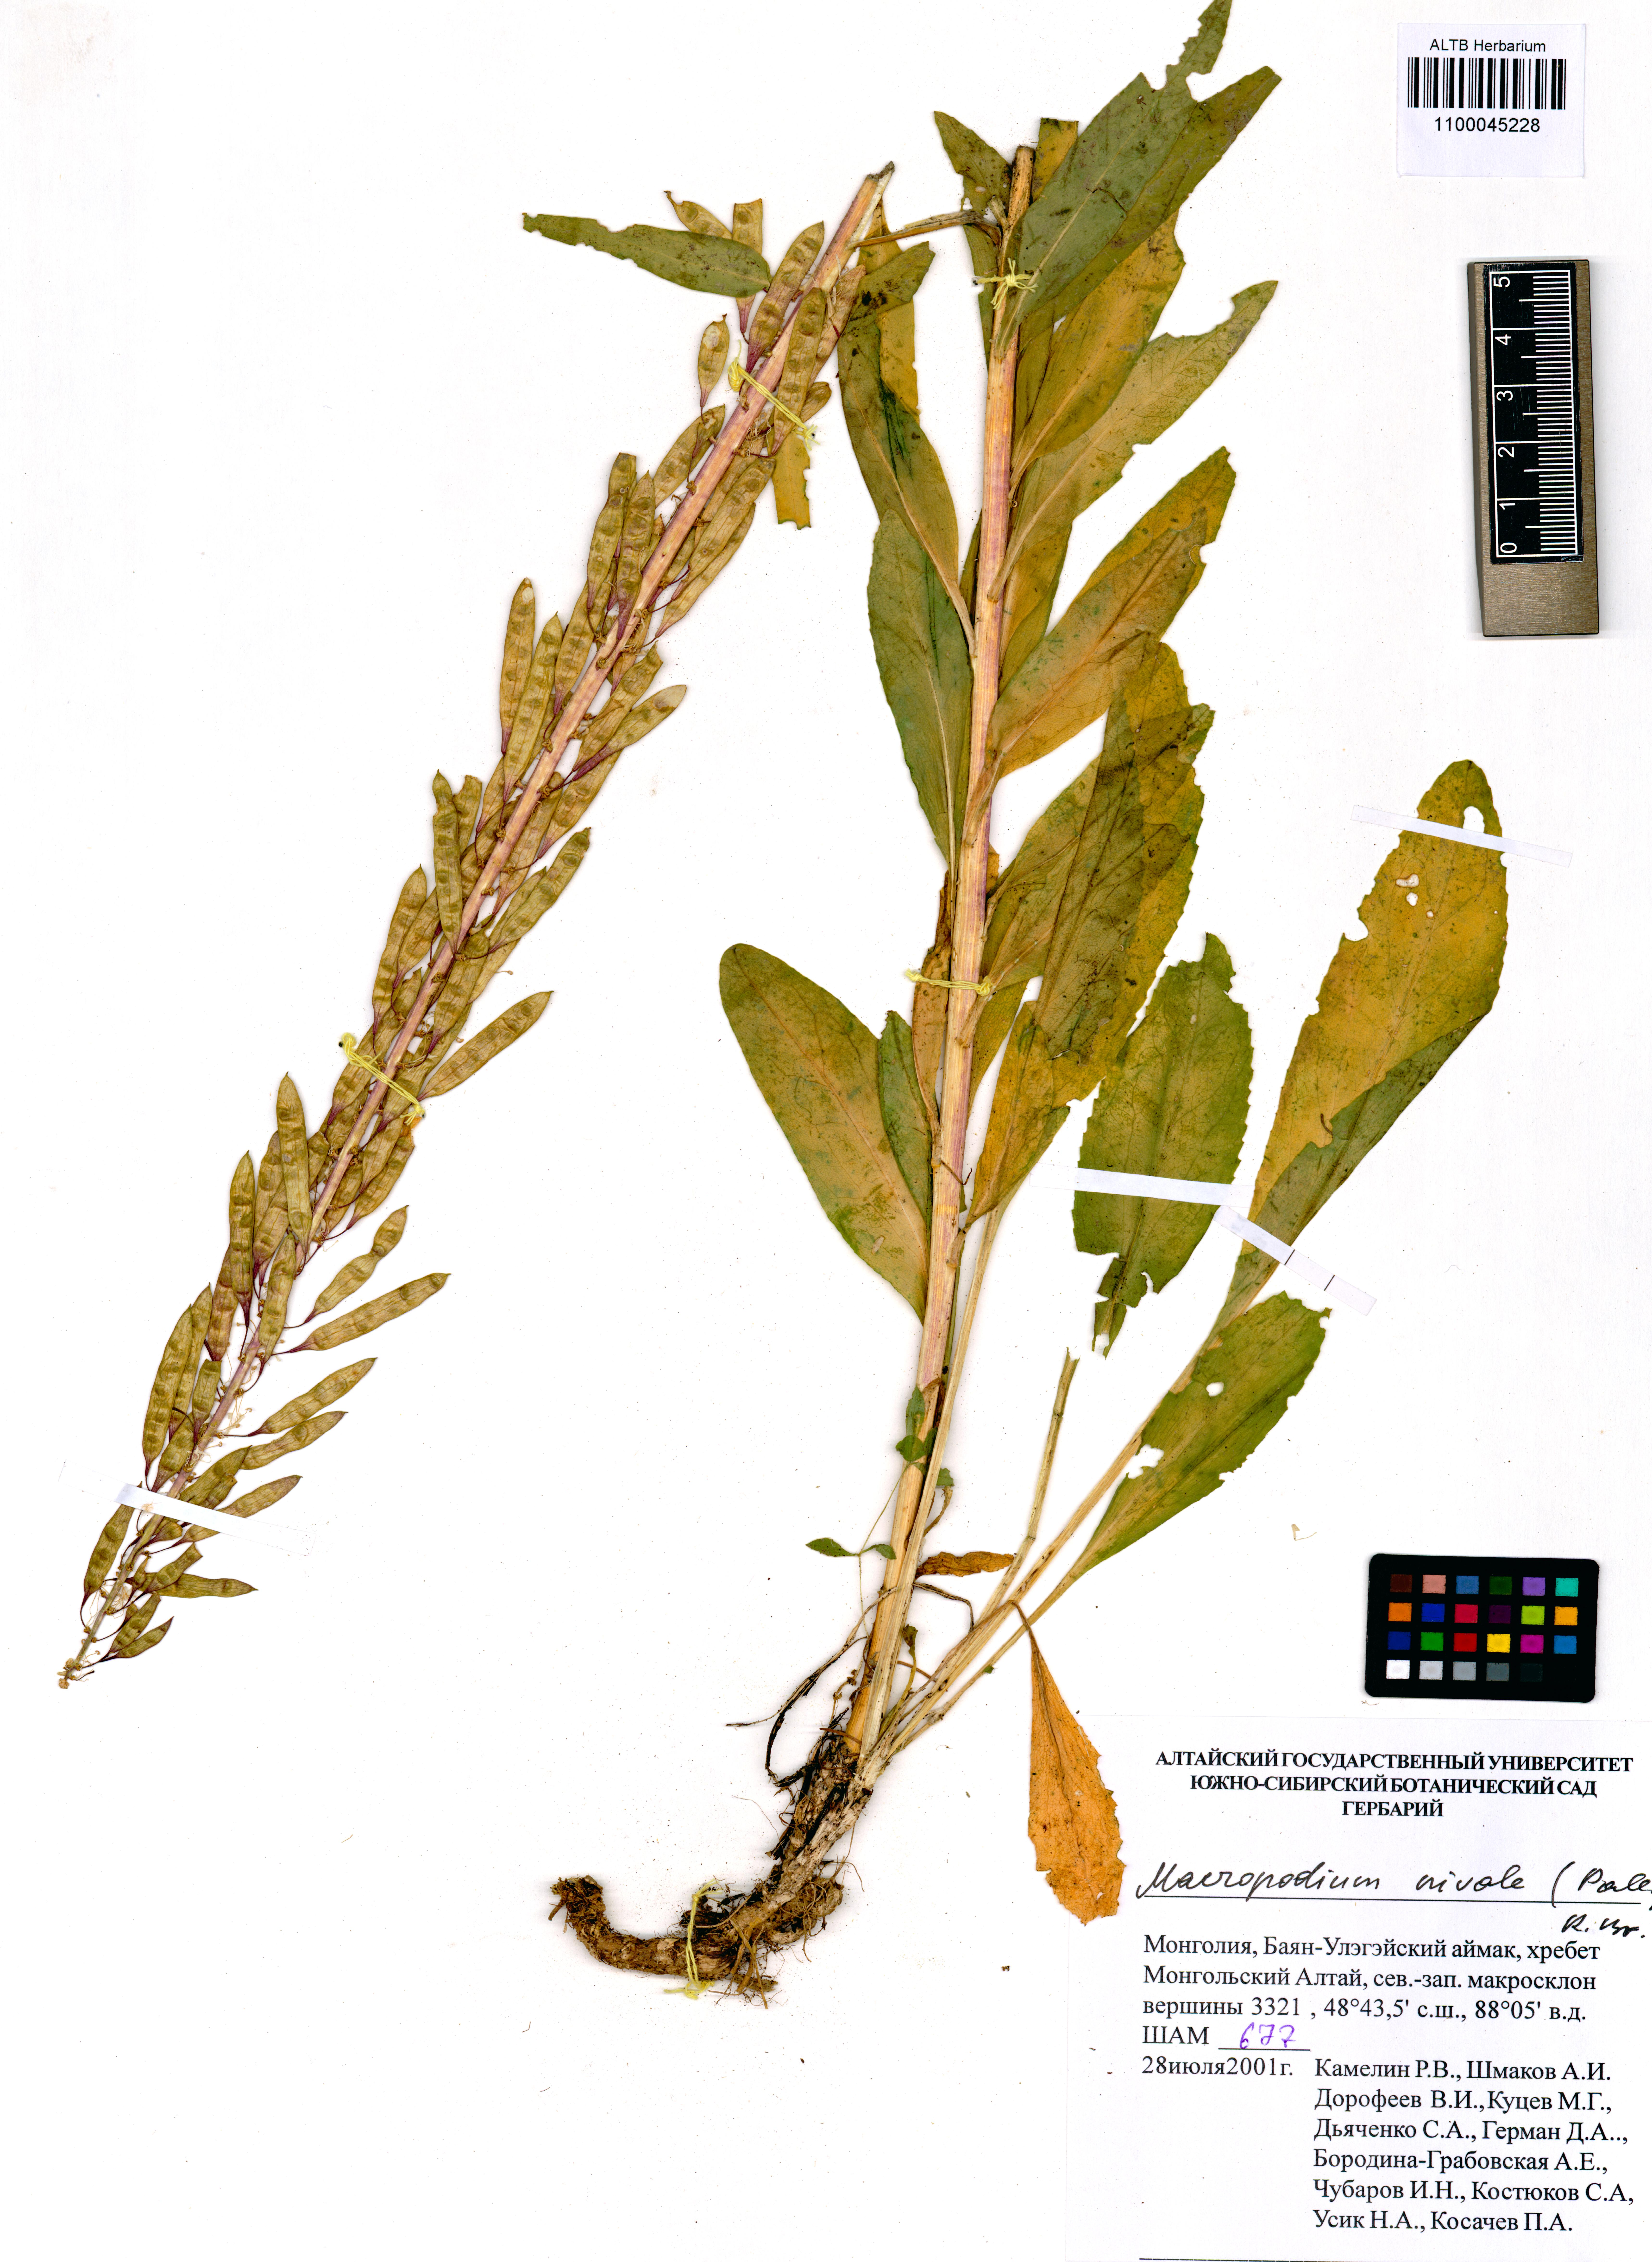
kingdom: Plantae
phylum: Tracheophyta
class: Magnoliopsida
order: Brassicales
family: Brassicaceae
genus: Macropodium
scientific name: Macropodium nivale
